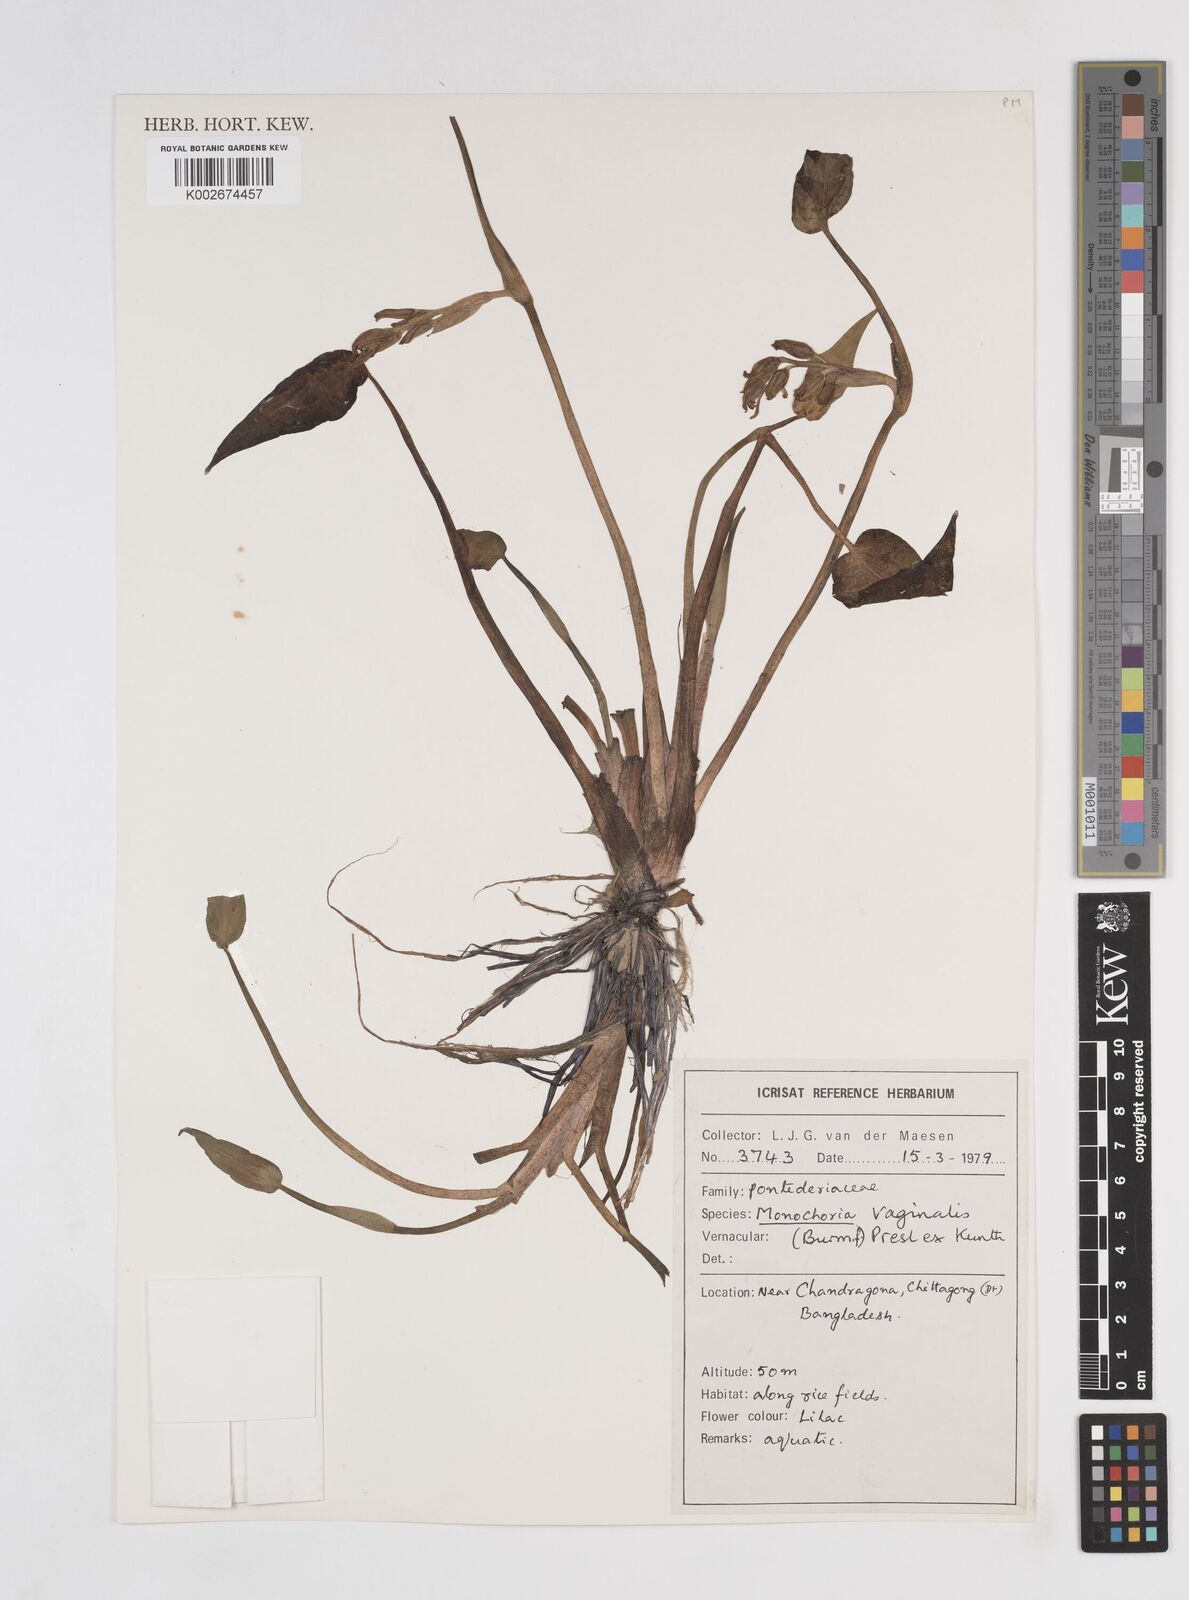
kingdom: Plantae
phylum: Tracheophyta
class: Liliopsida
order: Commelinales
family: Pontederiaceae
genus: Pontederia
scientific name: Pontederia vaginalis
